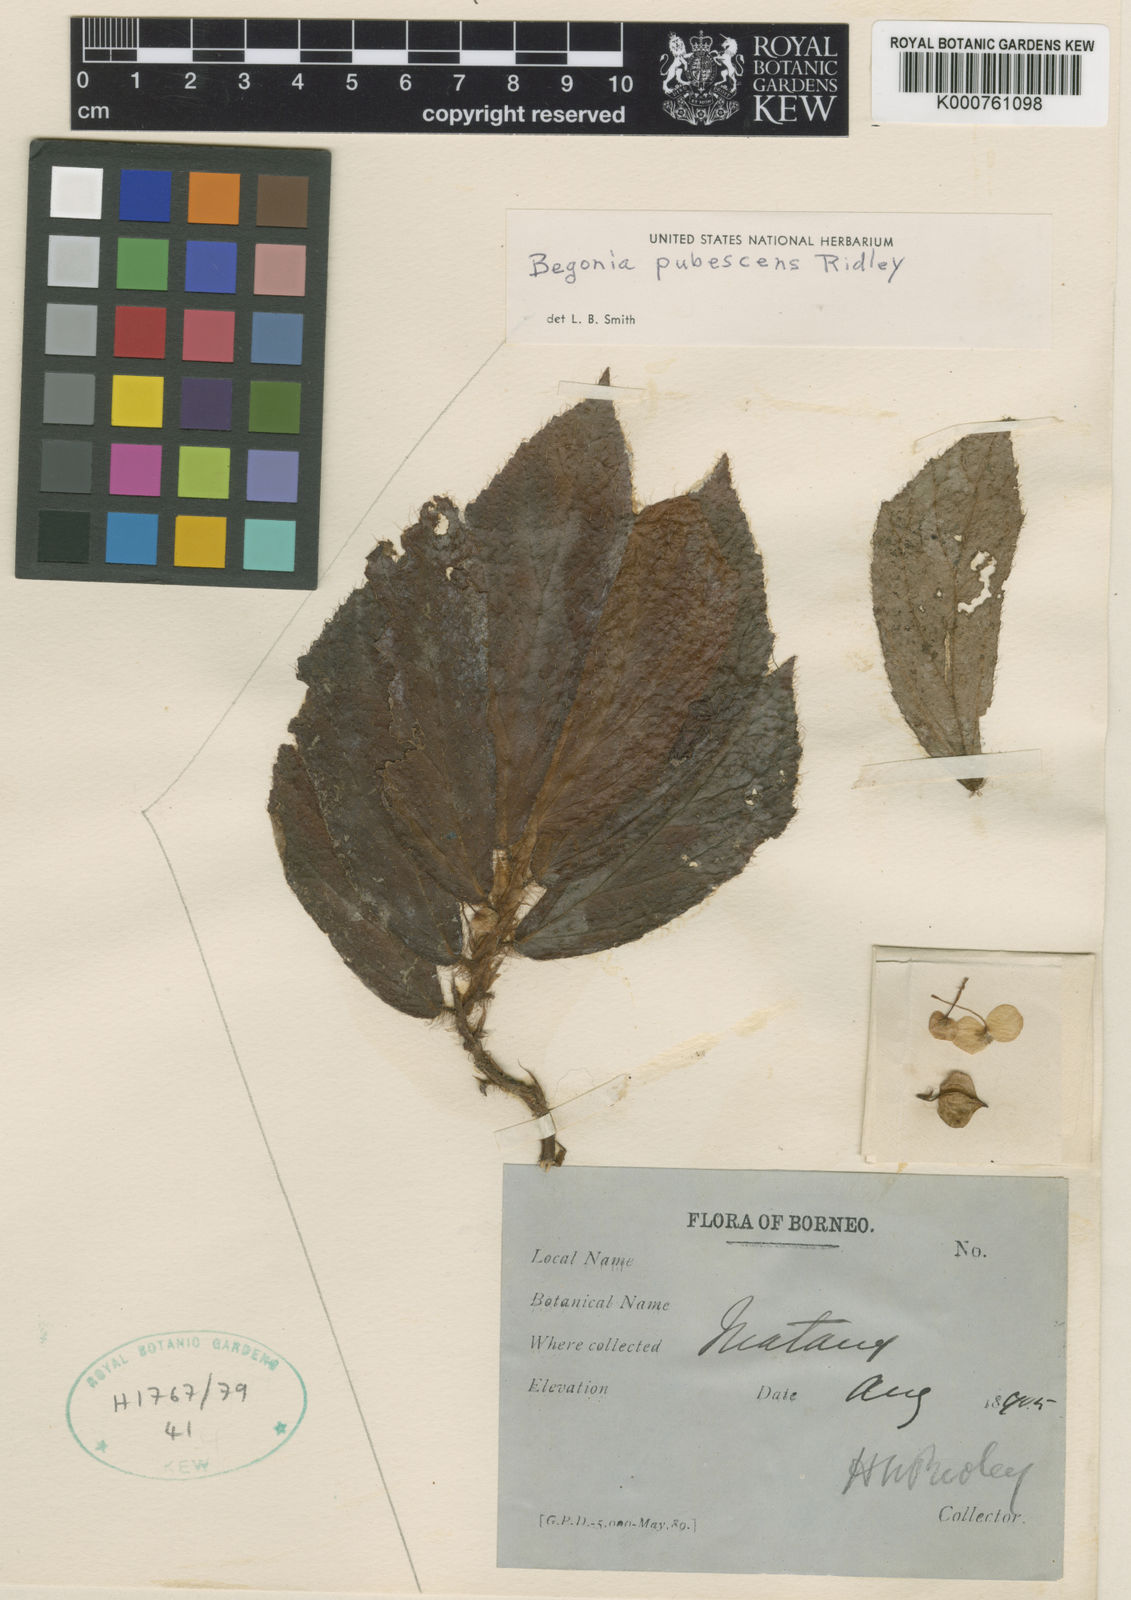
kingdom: Plantae
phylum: Tracheophyta
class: Magnoliopsida
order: Cucurbitales
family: Begoniaceae
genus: Begonia
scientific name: Begonia pubescens
